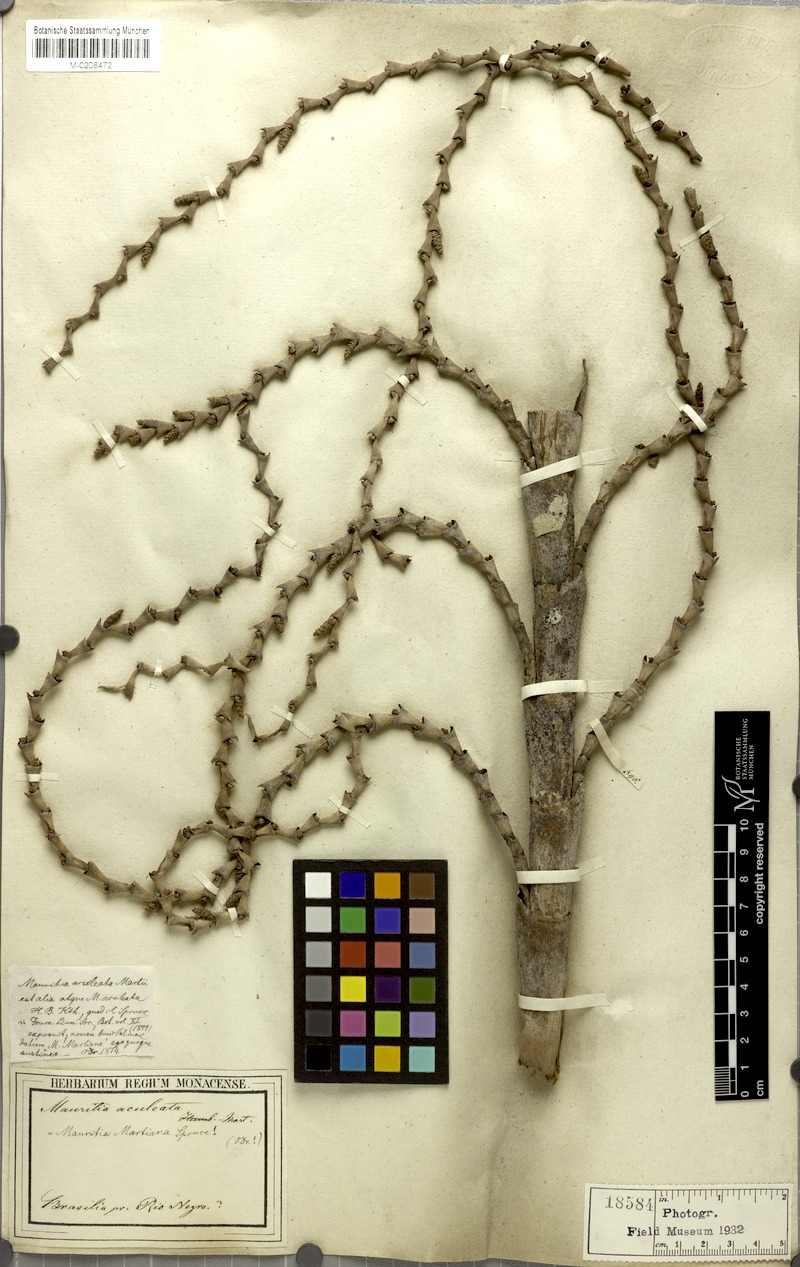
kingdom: Plantae
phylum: Tracheophyta
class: Liliopsida
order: Arecales
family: Arecaceae
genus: Mauritiella
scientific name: Mauritiella armata
